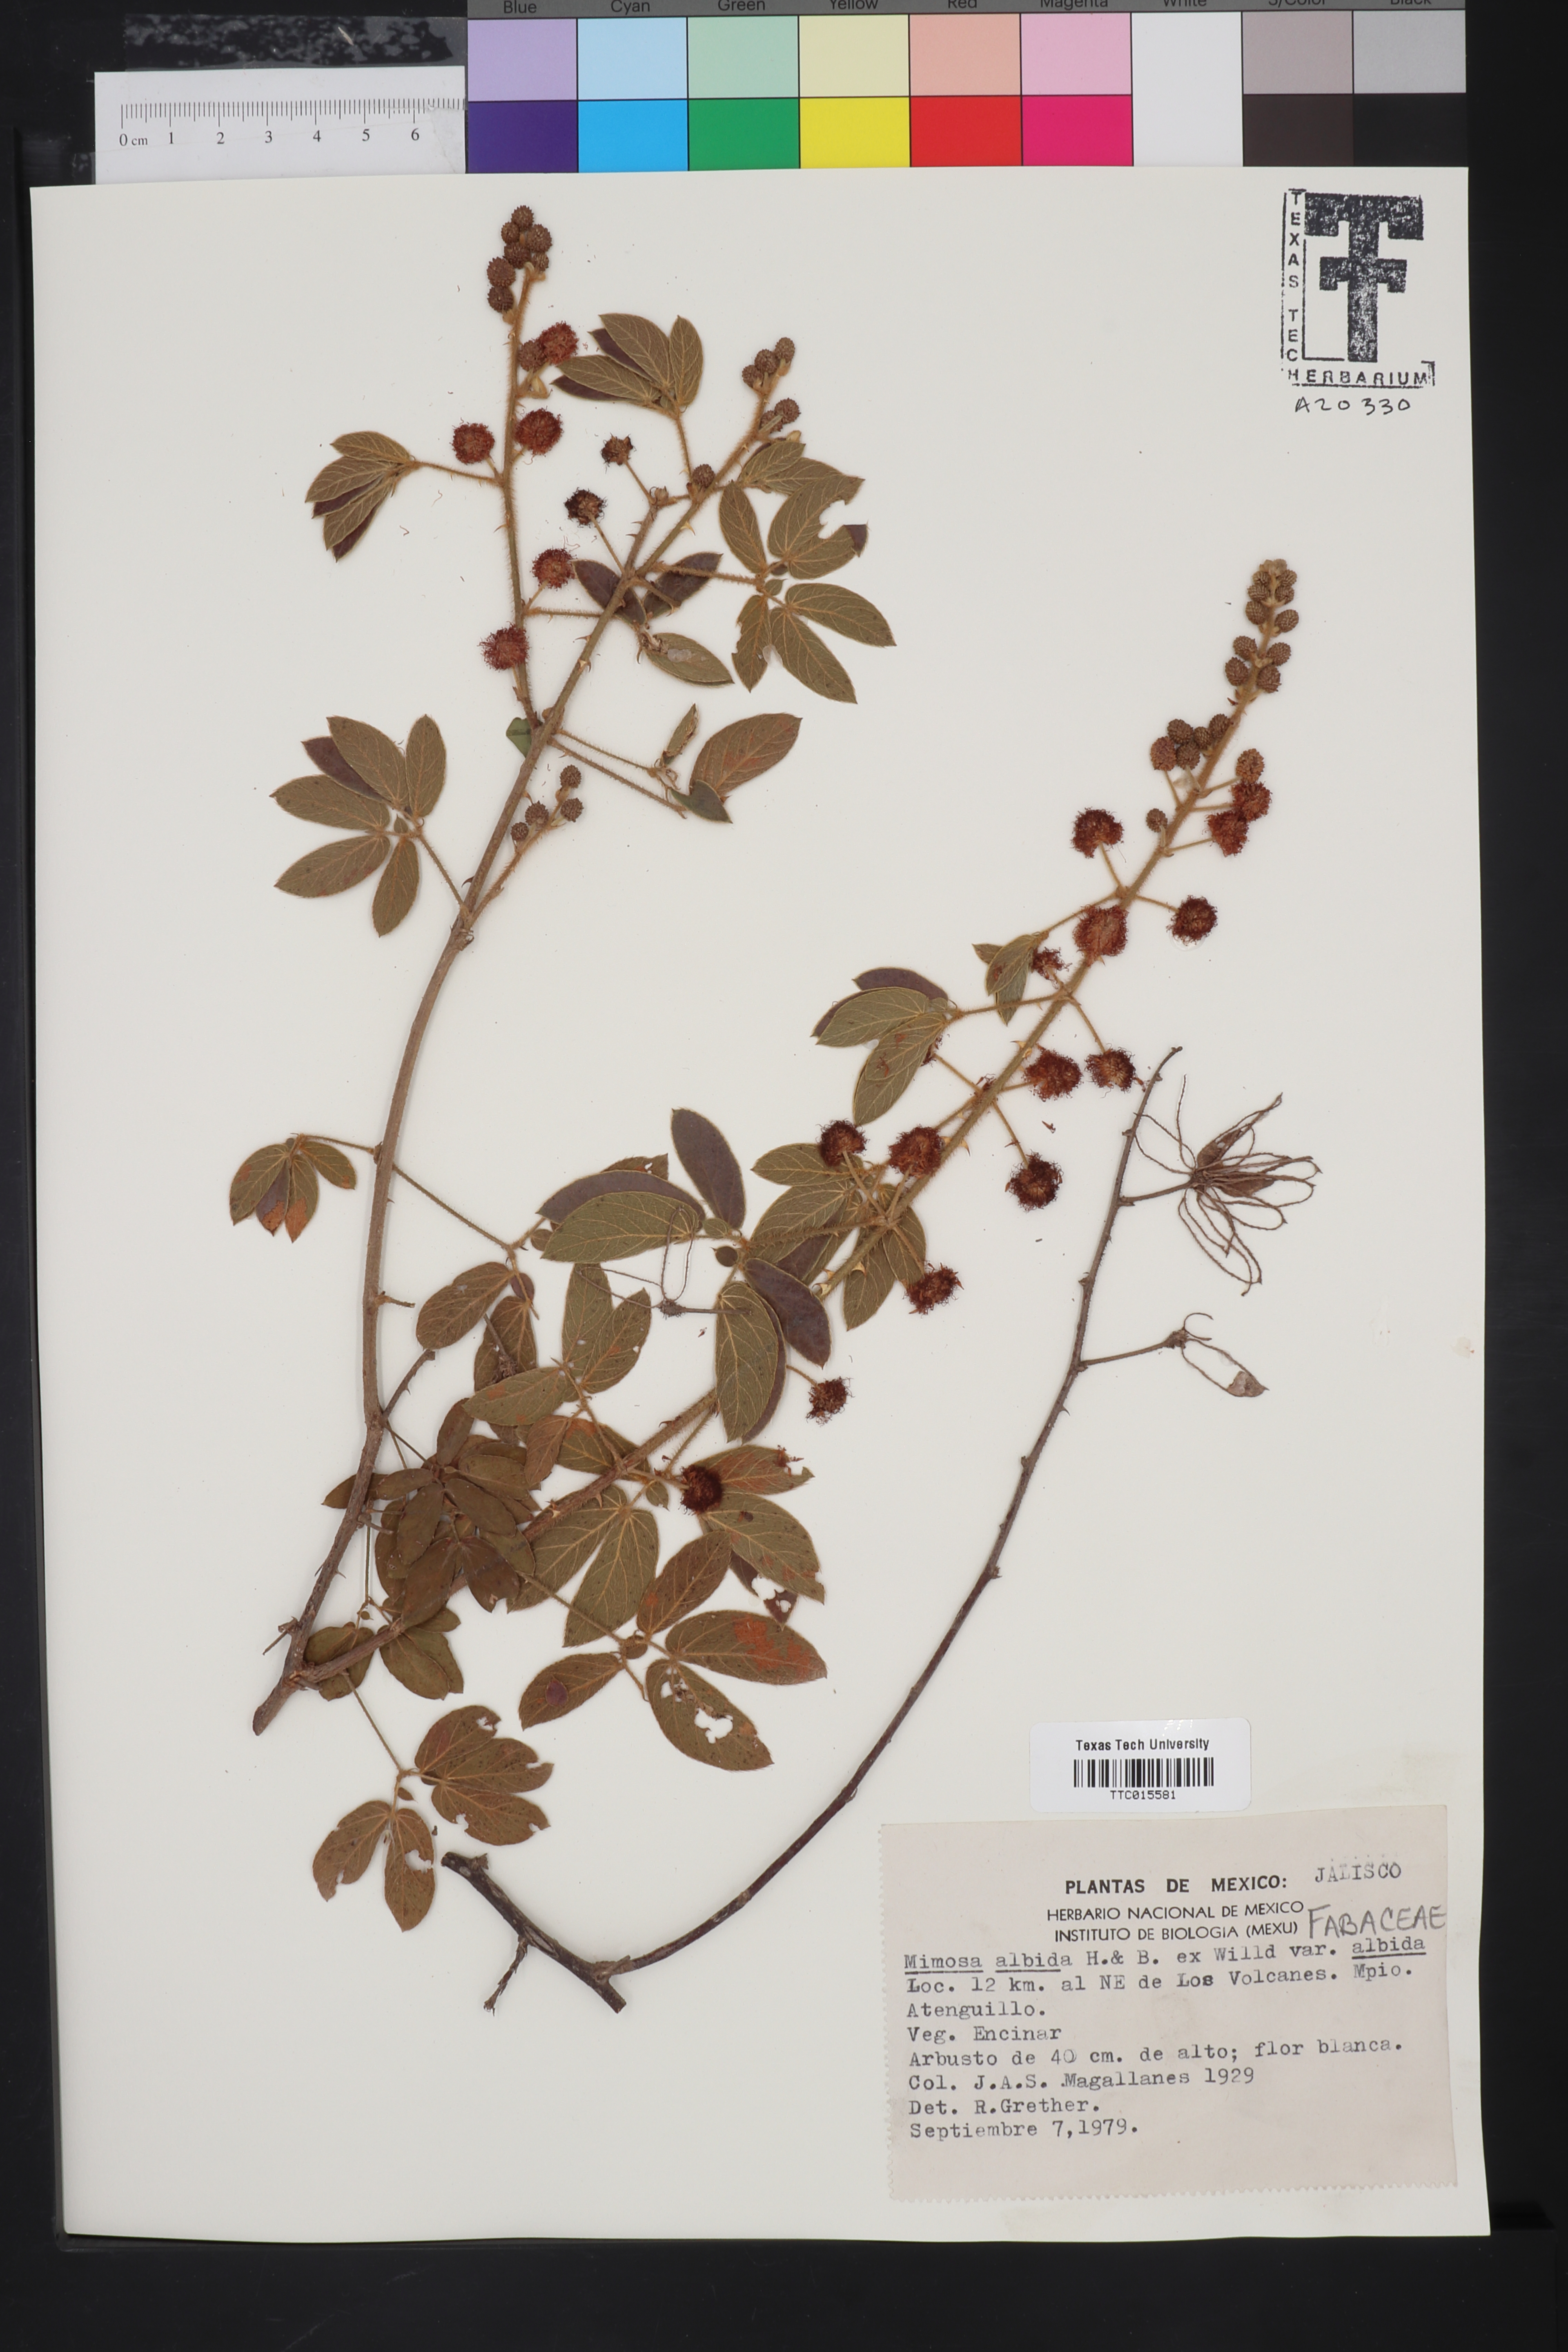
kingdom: Plantae
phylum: Tracheophyta
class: Magnoliopsida
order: Fabales
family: Fabaceae
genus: Mimosa
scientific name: Mimosa albida
